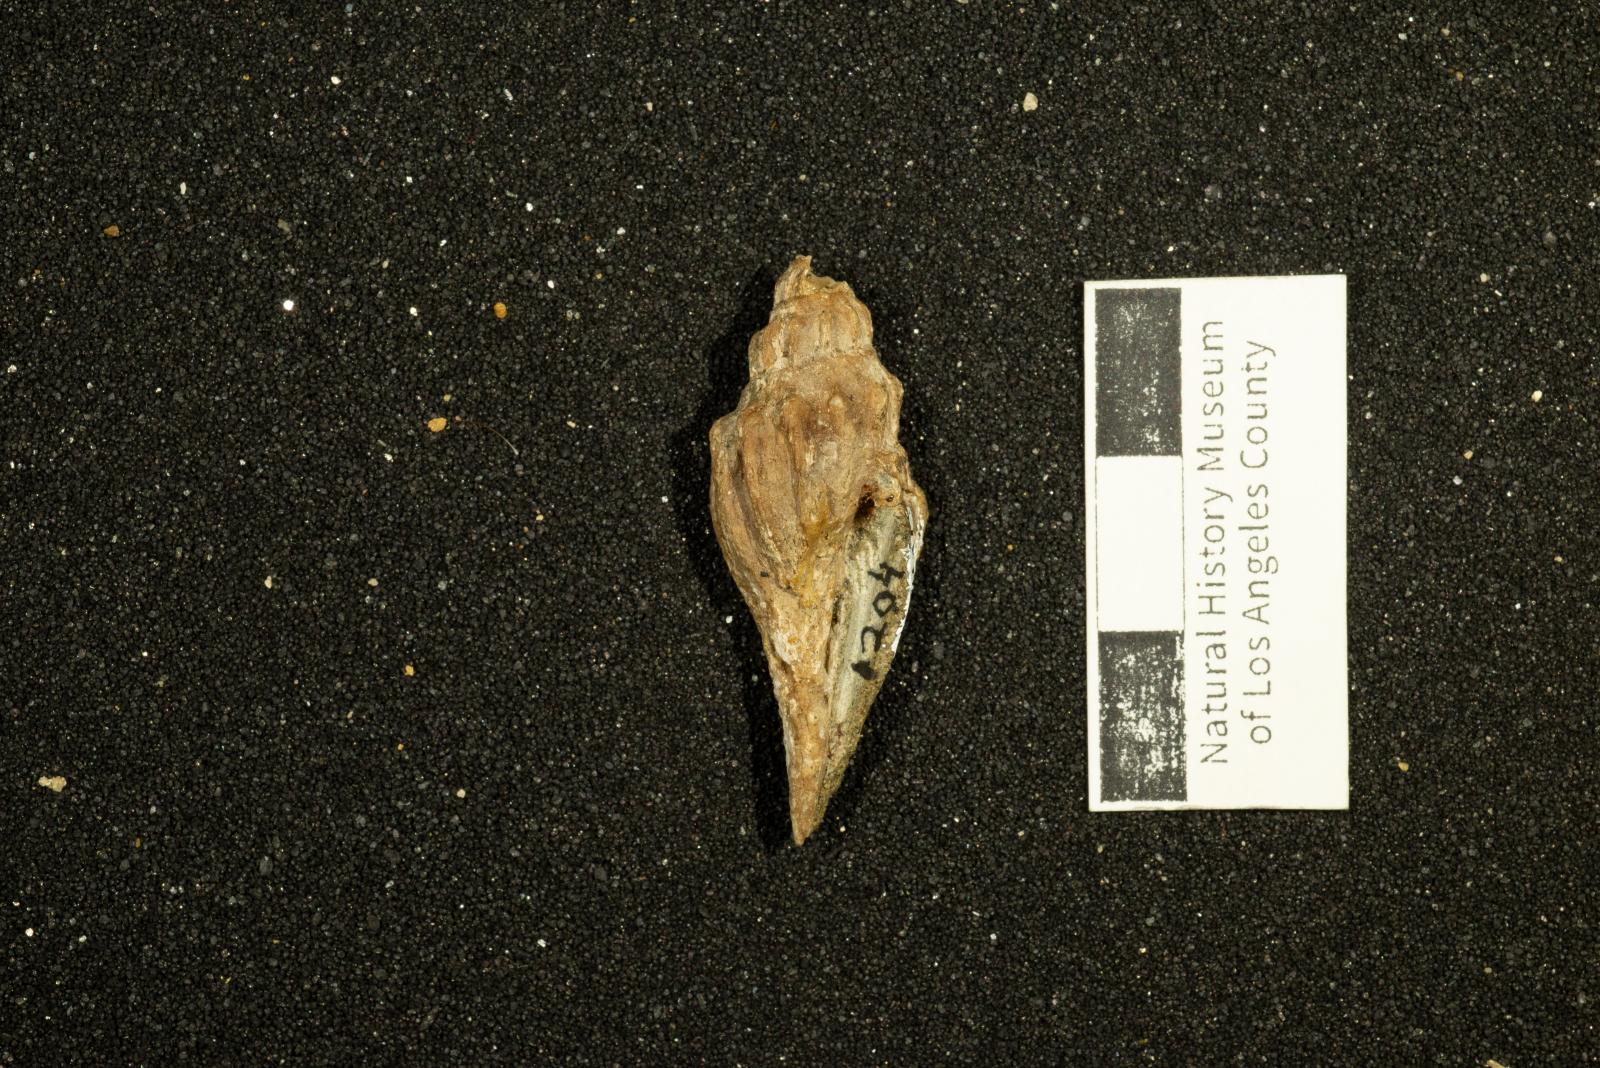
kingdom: Animalia
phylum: Mollusca
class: Gastropoda
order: Neogastropoda
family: Volutidae
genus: Carota
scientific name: Carota Scobinella dilleri
